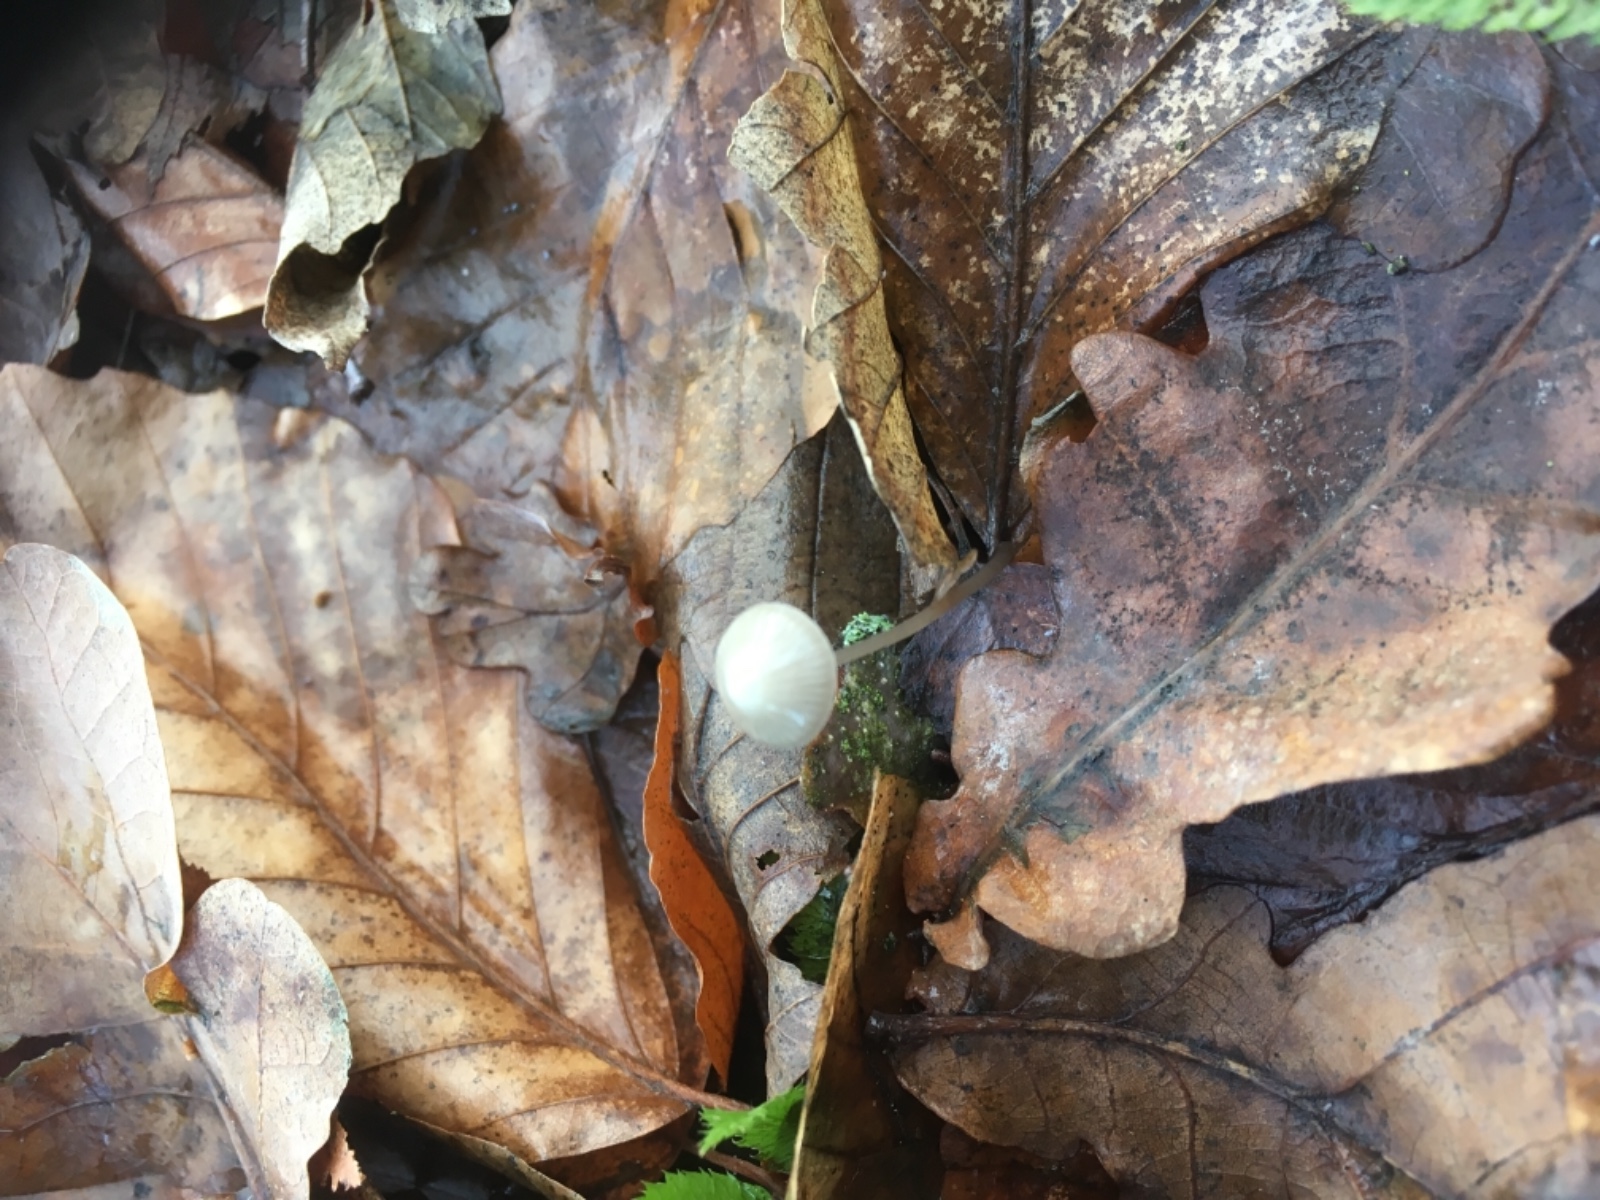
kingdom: Fungi
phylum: Basidiomycota
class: Agaricomycetes
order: Agaricales
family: Mycenaceae
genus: Mycena
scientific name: Mycena vitilis
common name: blankstokket huesvamp
